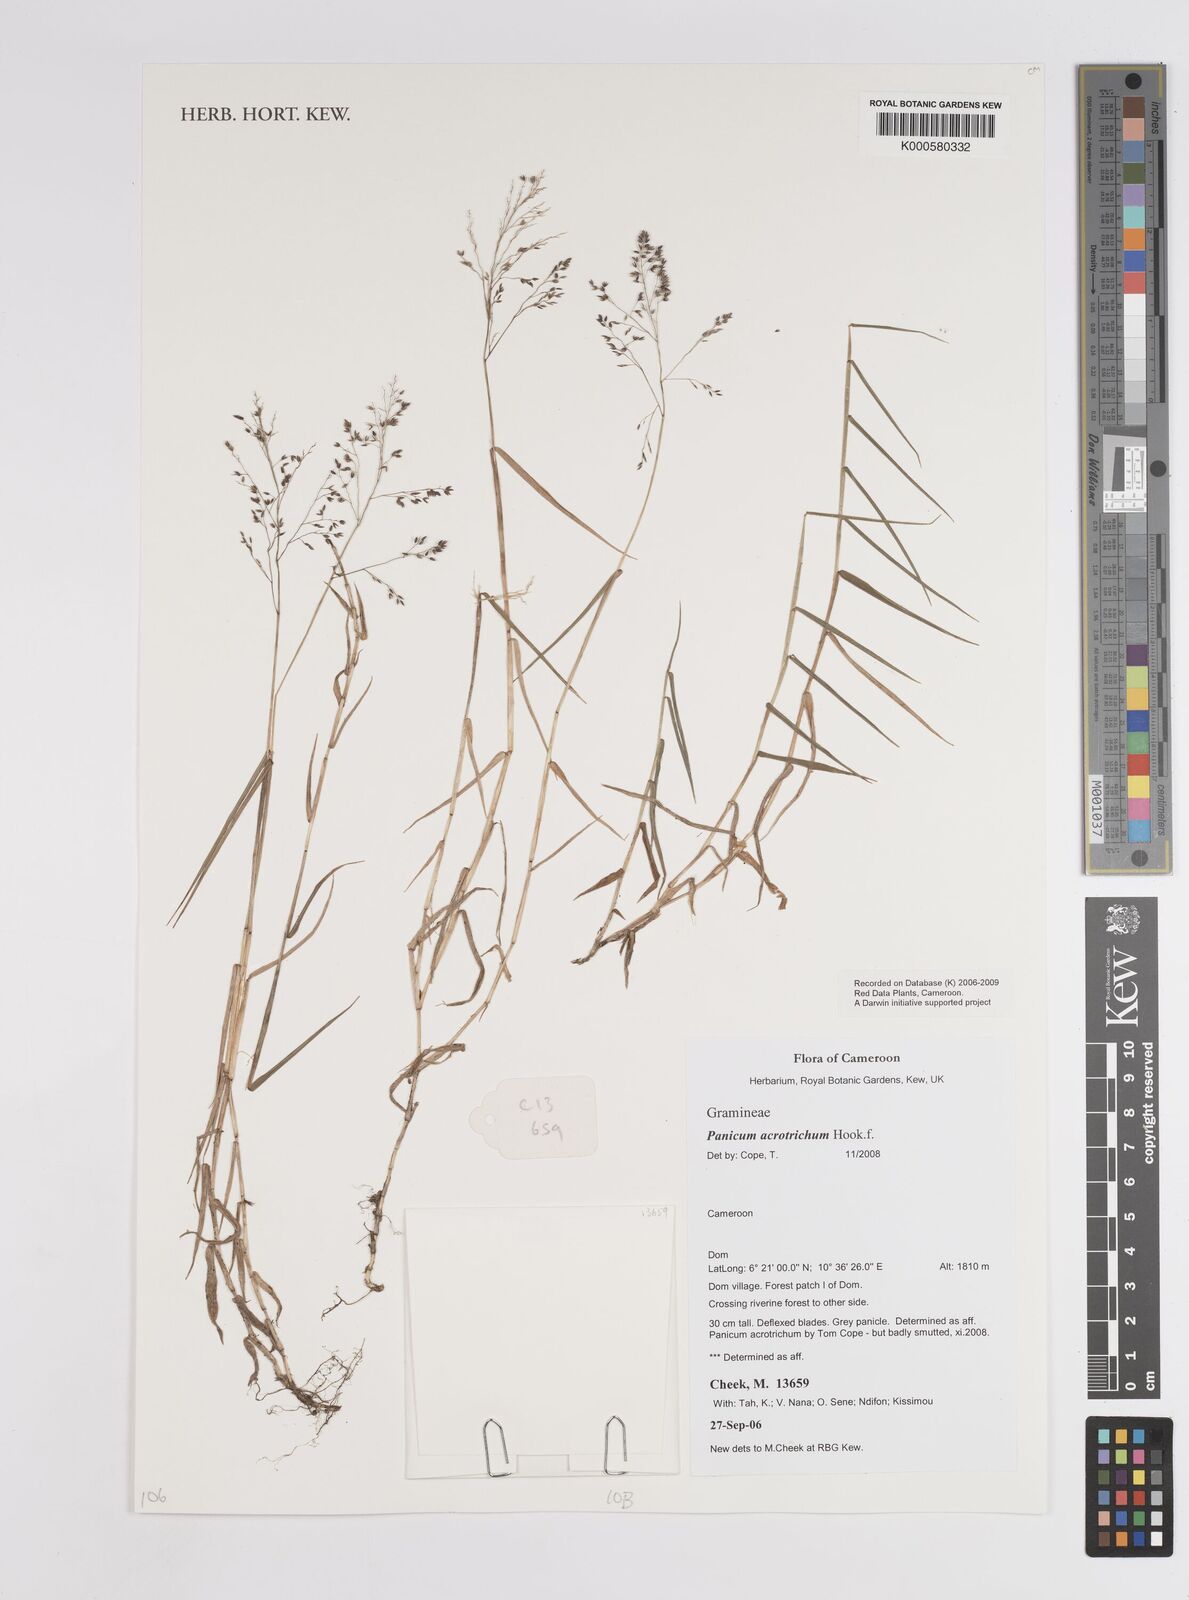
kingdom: Plantae
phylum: Tracheophyta
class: Liliopsida
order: Poales
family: Poaceae
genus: Panicum
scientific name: Panicum acrotrichum
